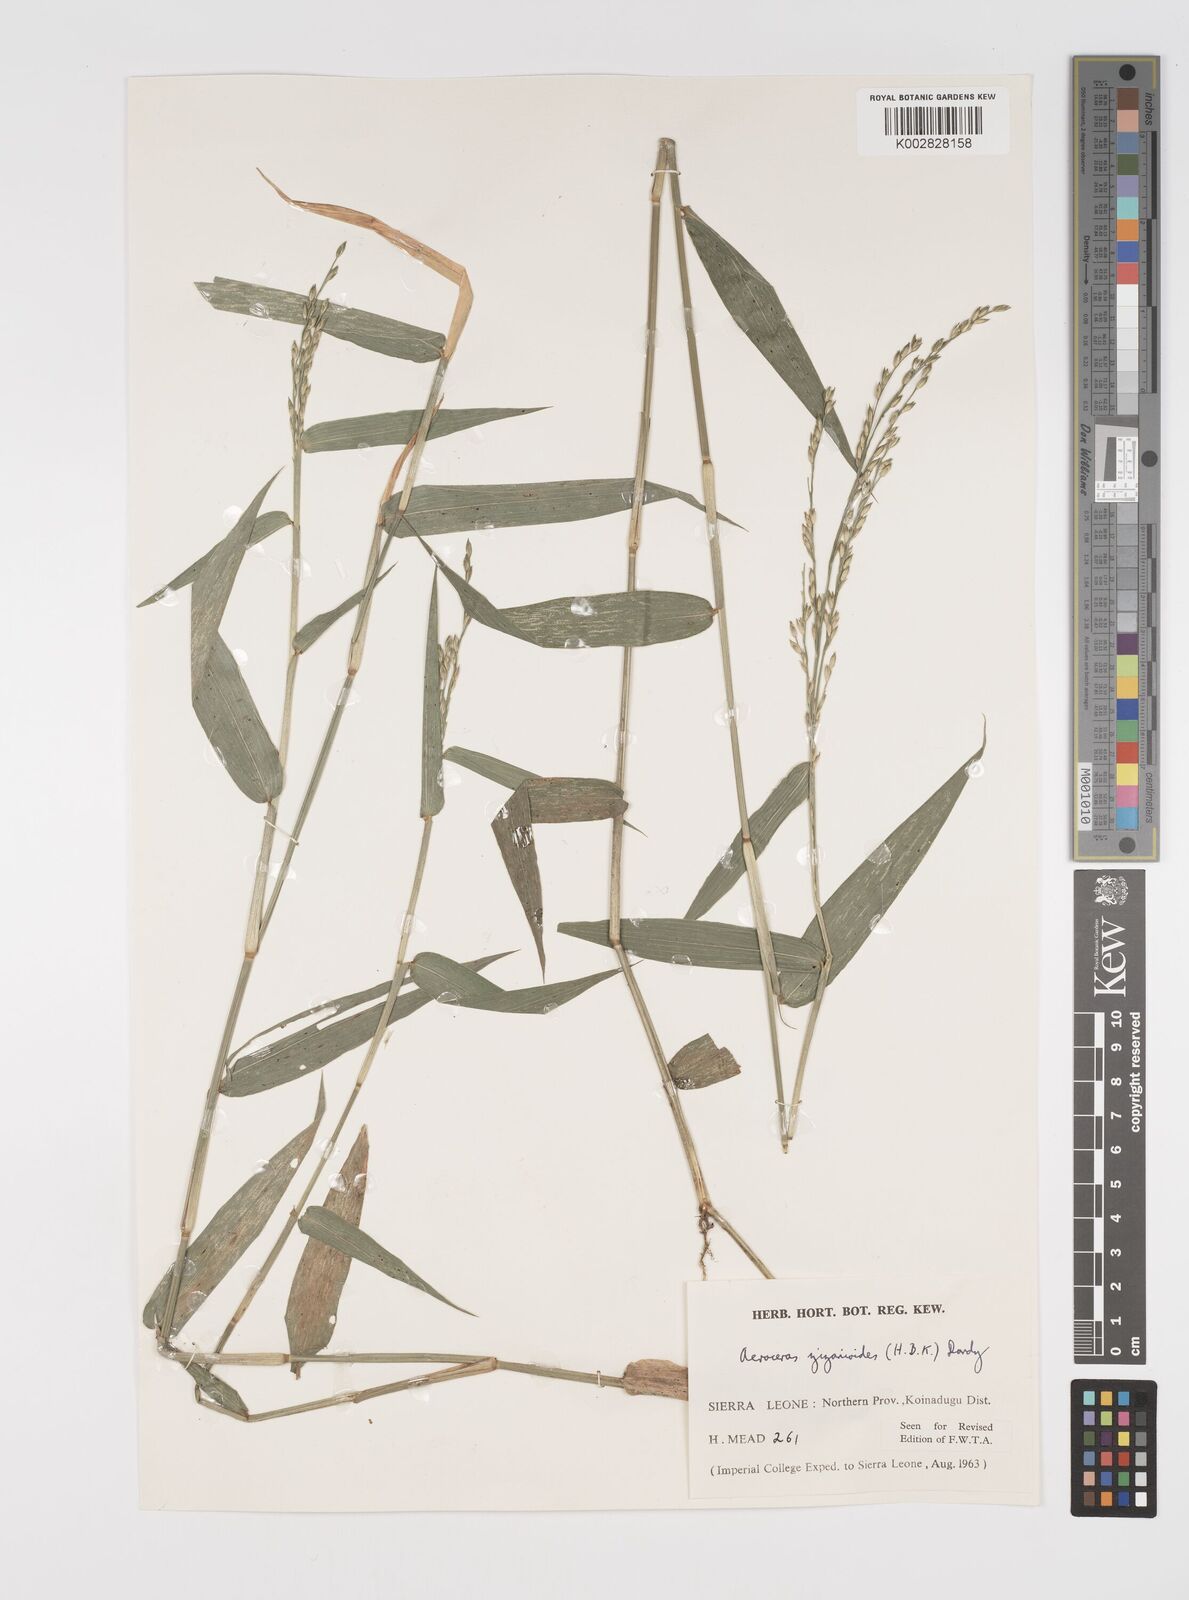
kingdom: Plantae
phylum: Tracheophyta
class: Liliopsida
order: Poales
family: Poaceae
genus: Acroceras
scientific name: Acroceras zizanioides
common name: Oat grass
